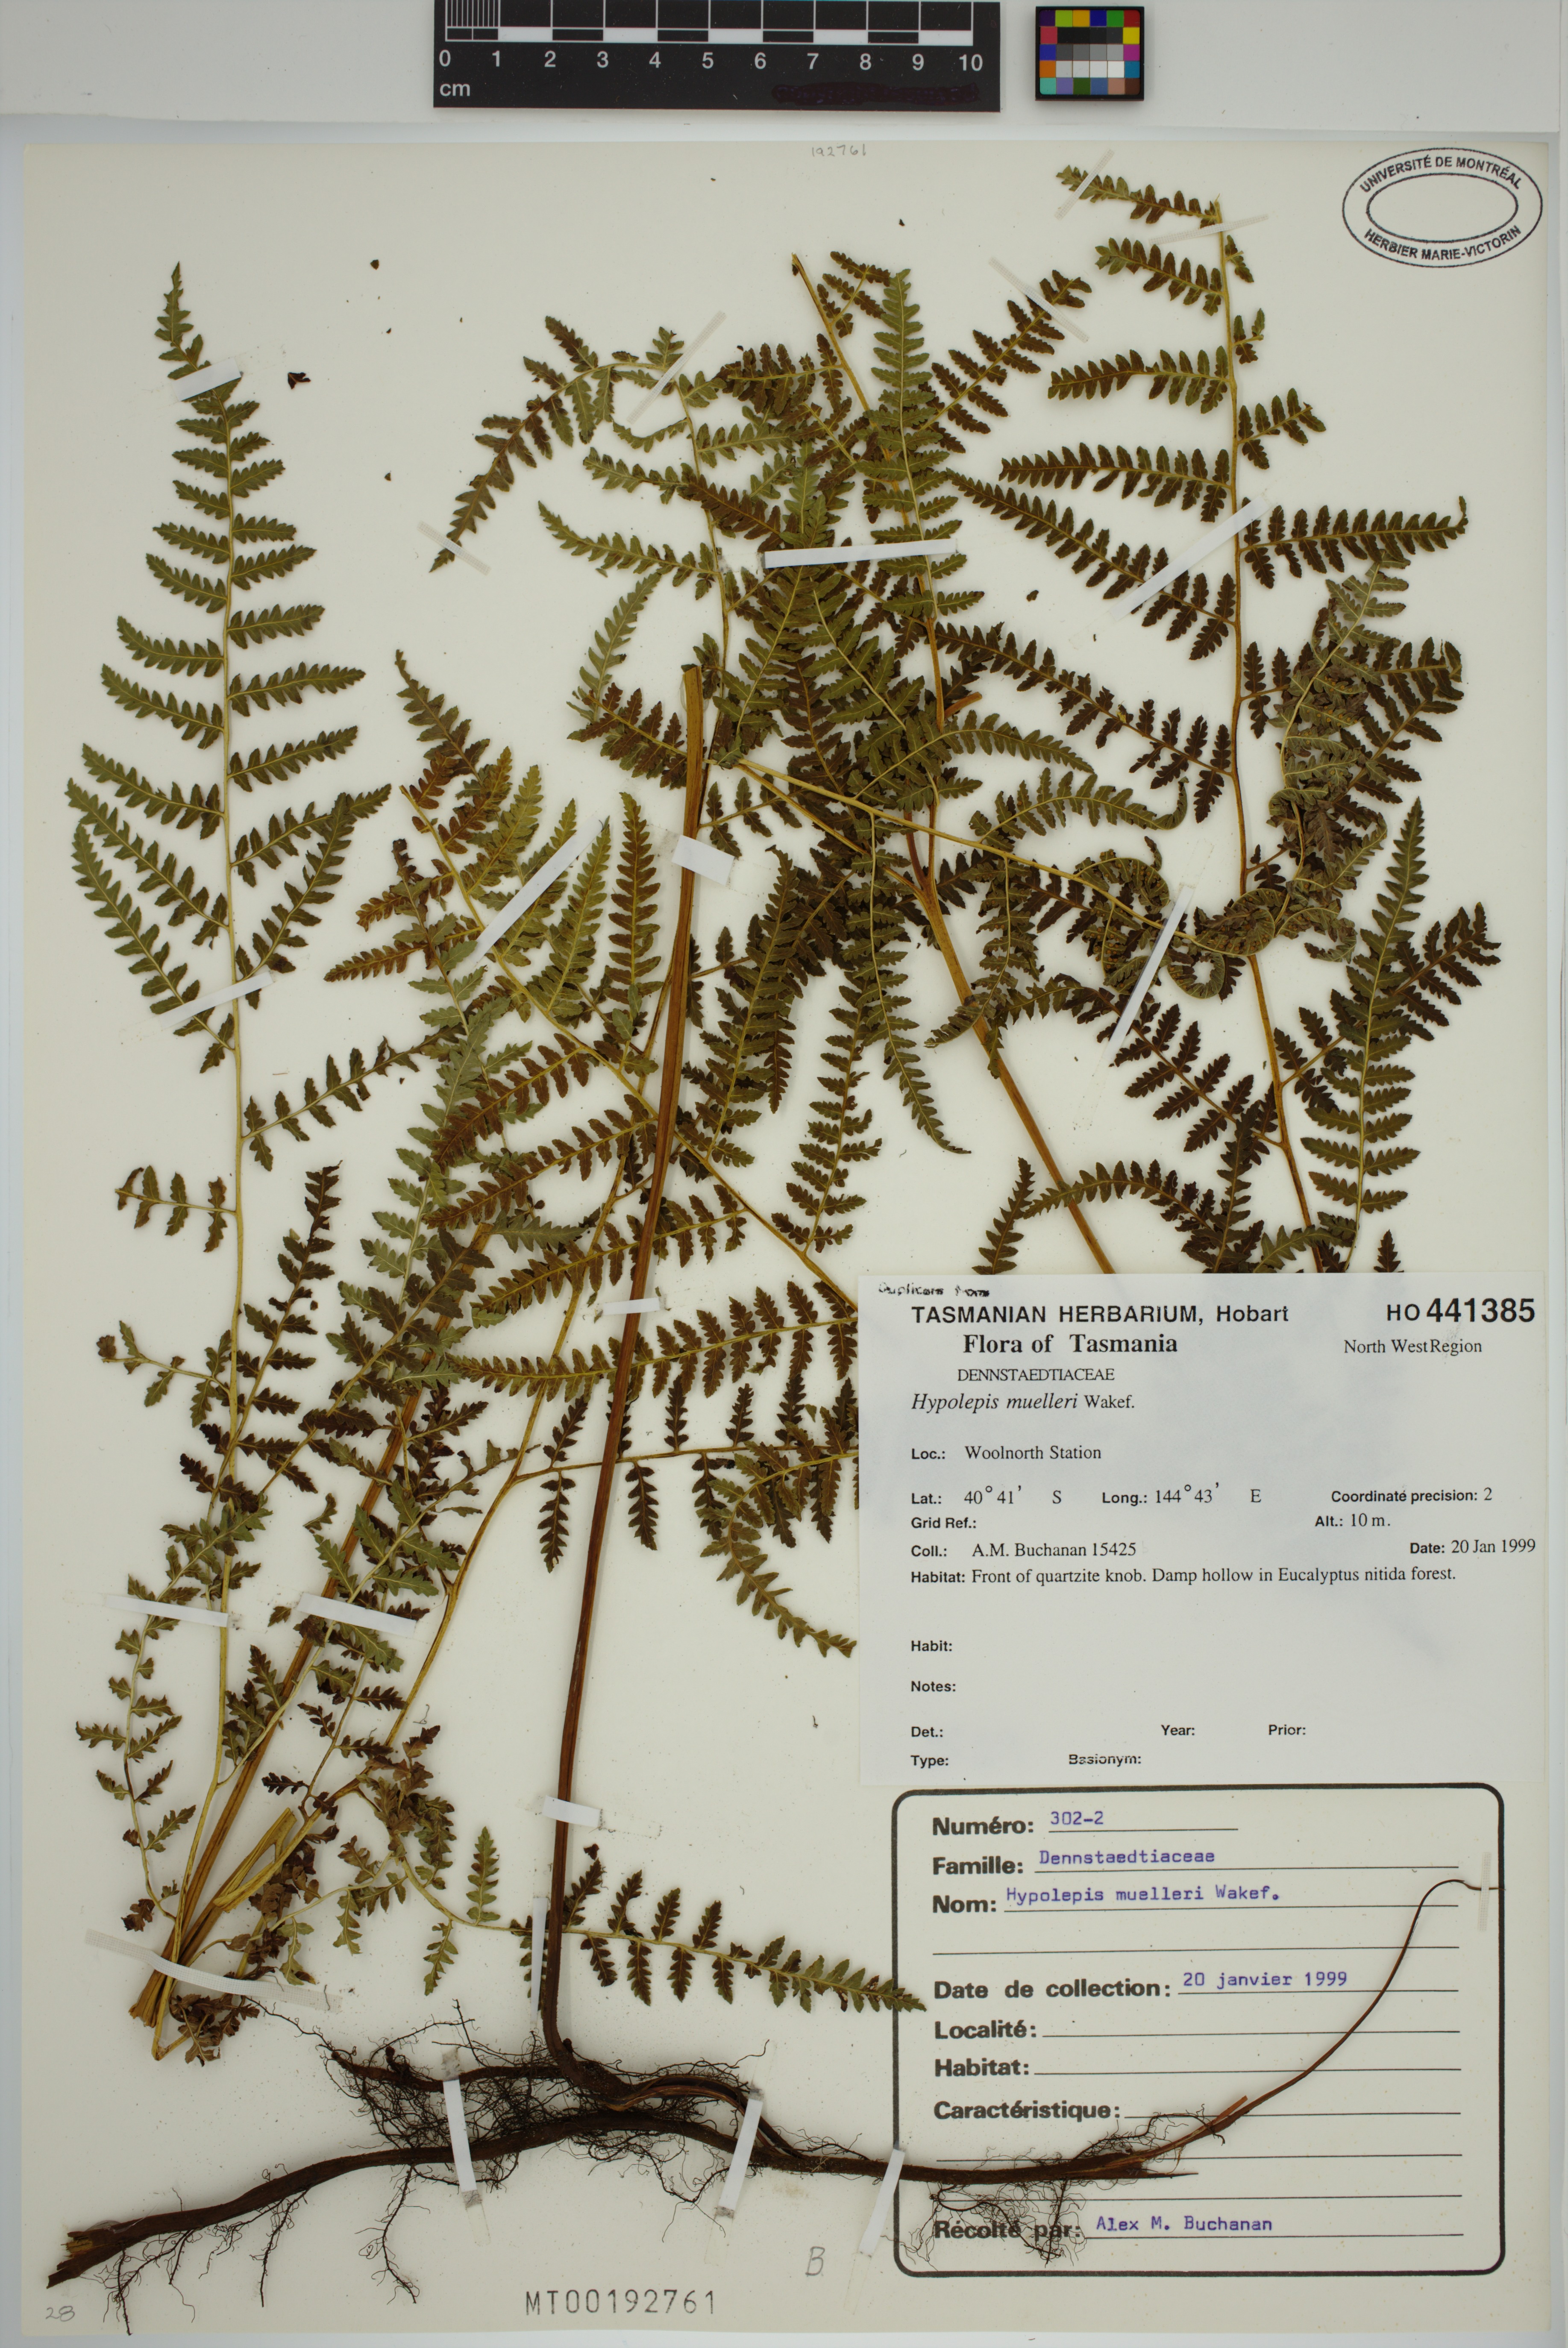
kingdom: Plantae
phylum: Tracheophyta
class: Polypodiopsida
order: Polypodiales
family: Dennstaedtiaceae
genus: Hypolepis
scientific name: Hypolepis muelleri
